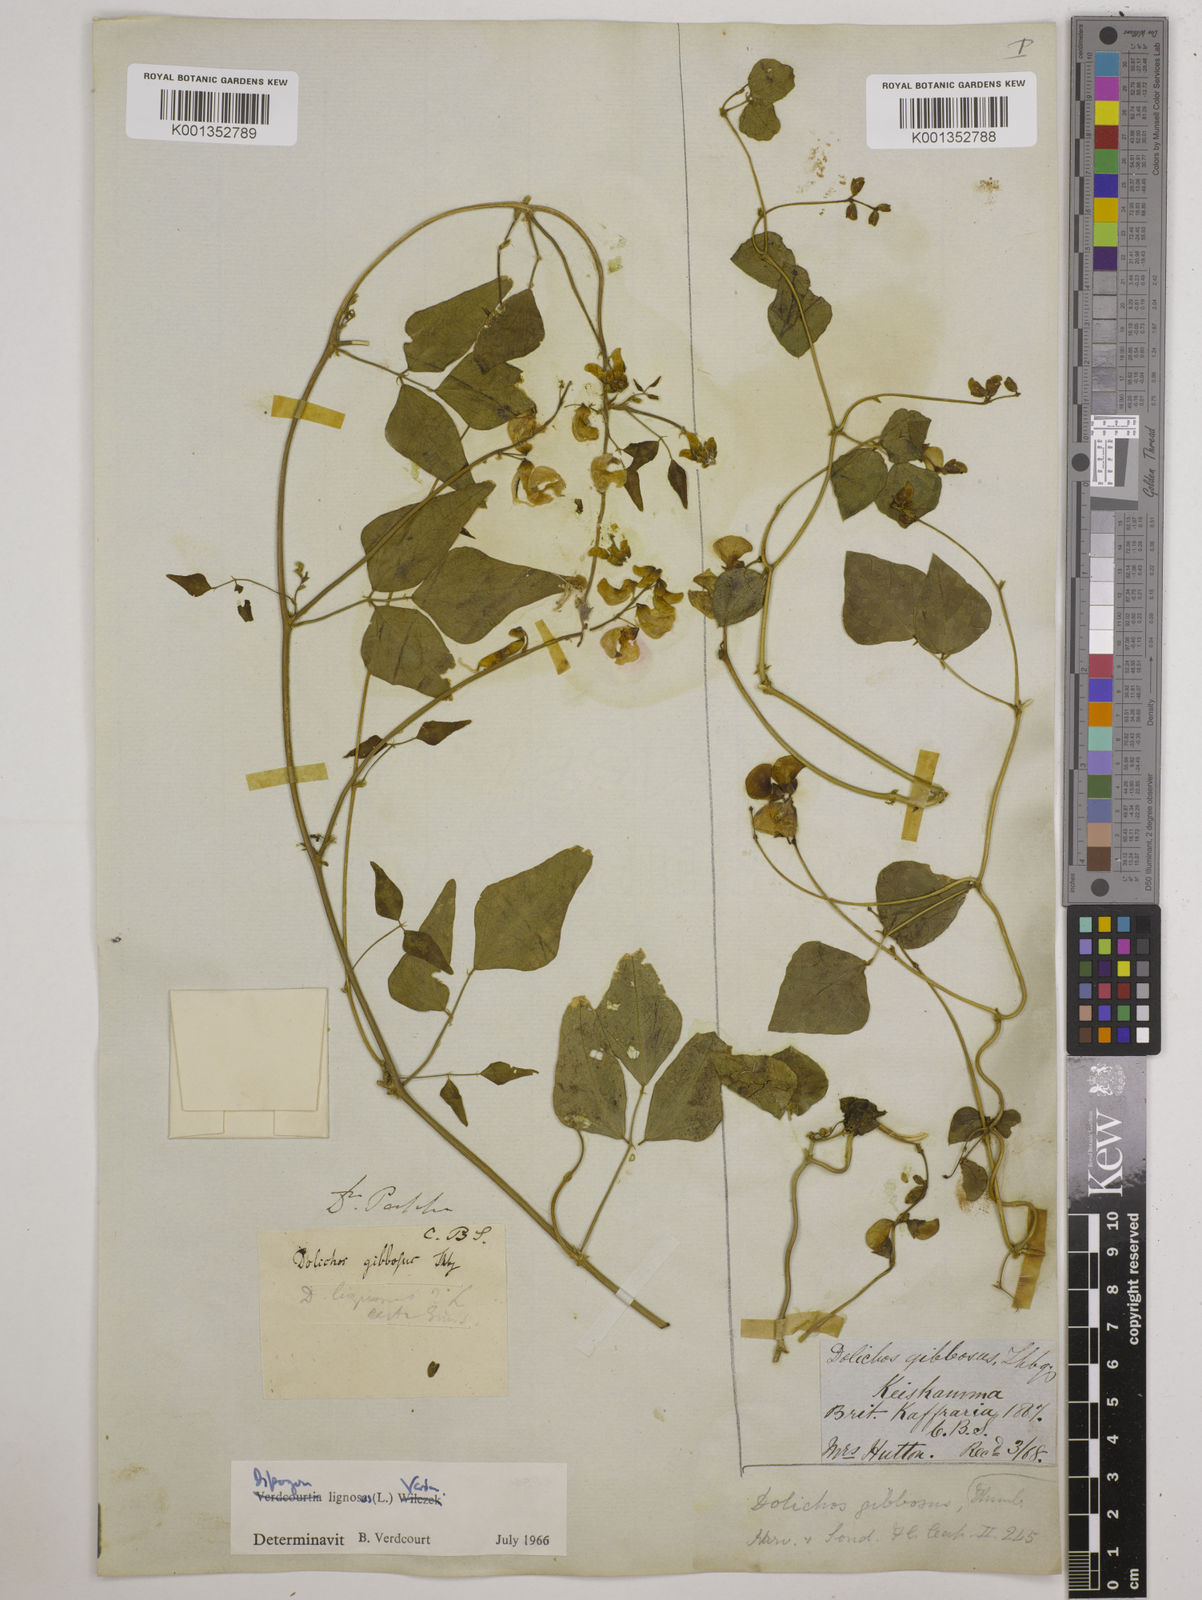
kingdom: Plantae
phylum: Tracheophyta
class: Magnoliopsida
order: Fabales
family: Fabaceae
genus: Dipogon
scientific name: Dipogon lignosus
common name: Okie bean
